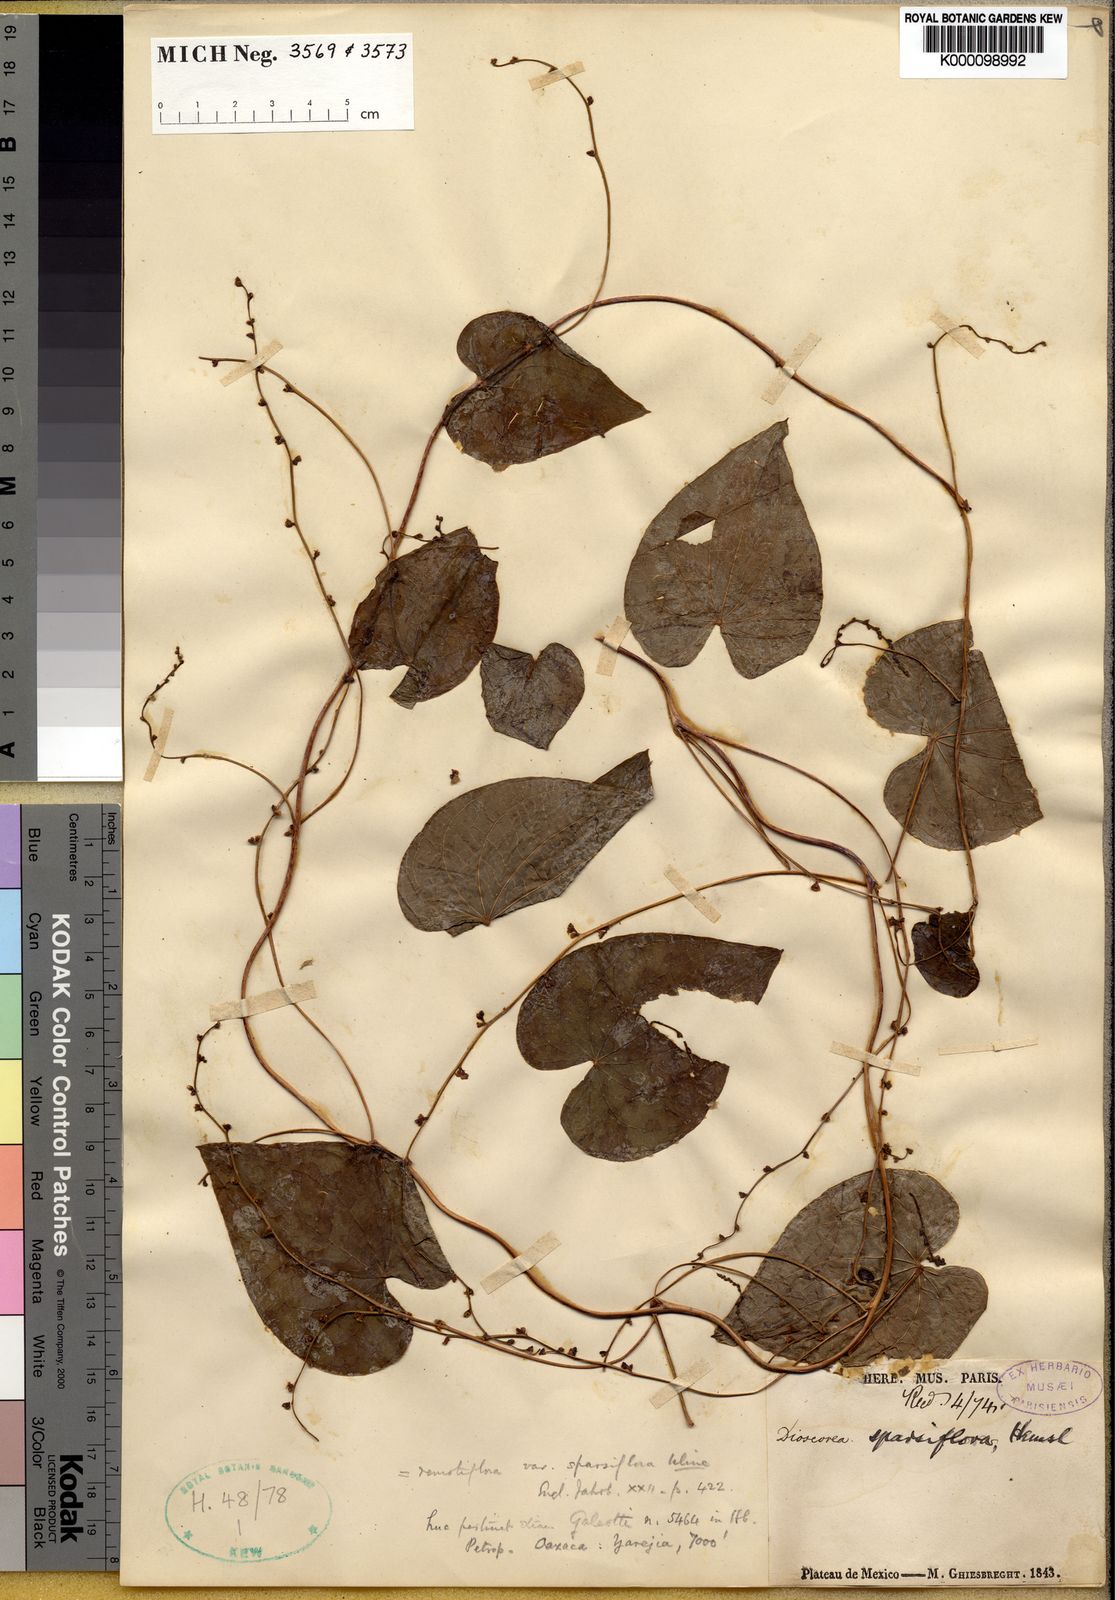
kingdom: Plantae
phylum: Tracheophyta
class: Liliopsida
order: Dioscoreales
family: Dioscoreaceae
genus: Dioscorea
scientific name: Dioscorea remotiflora
